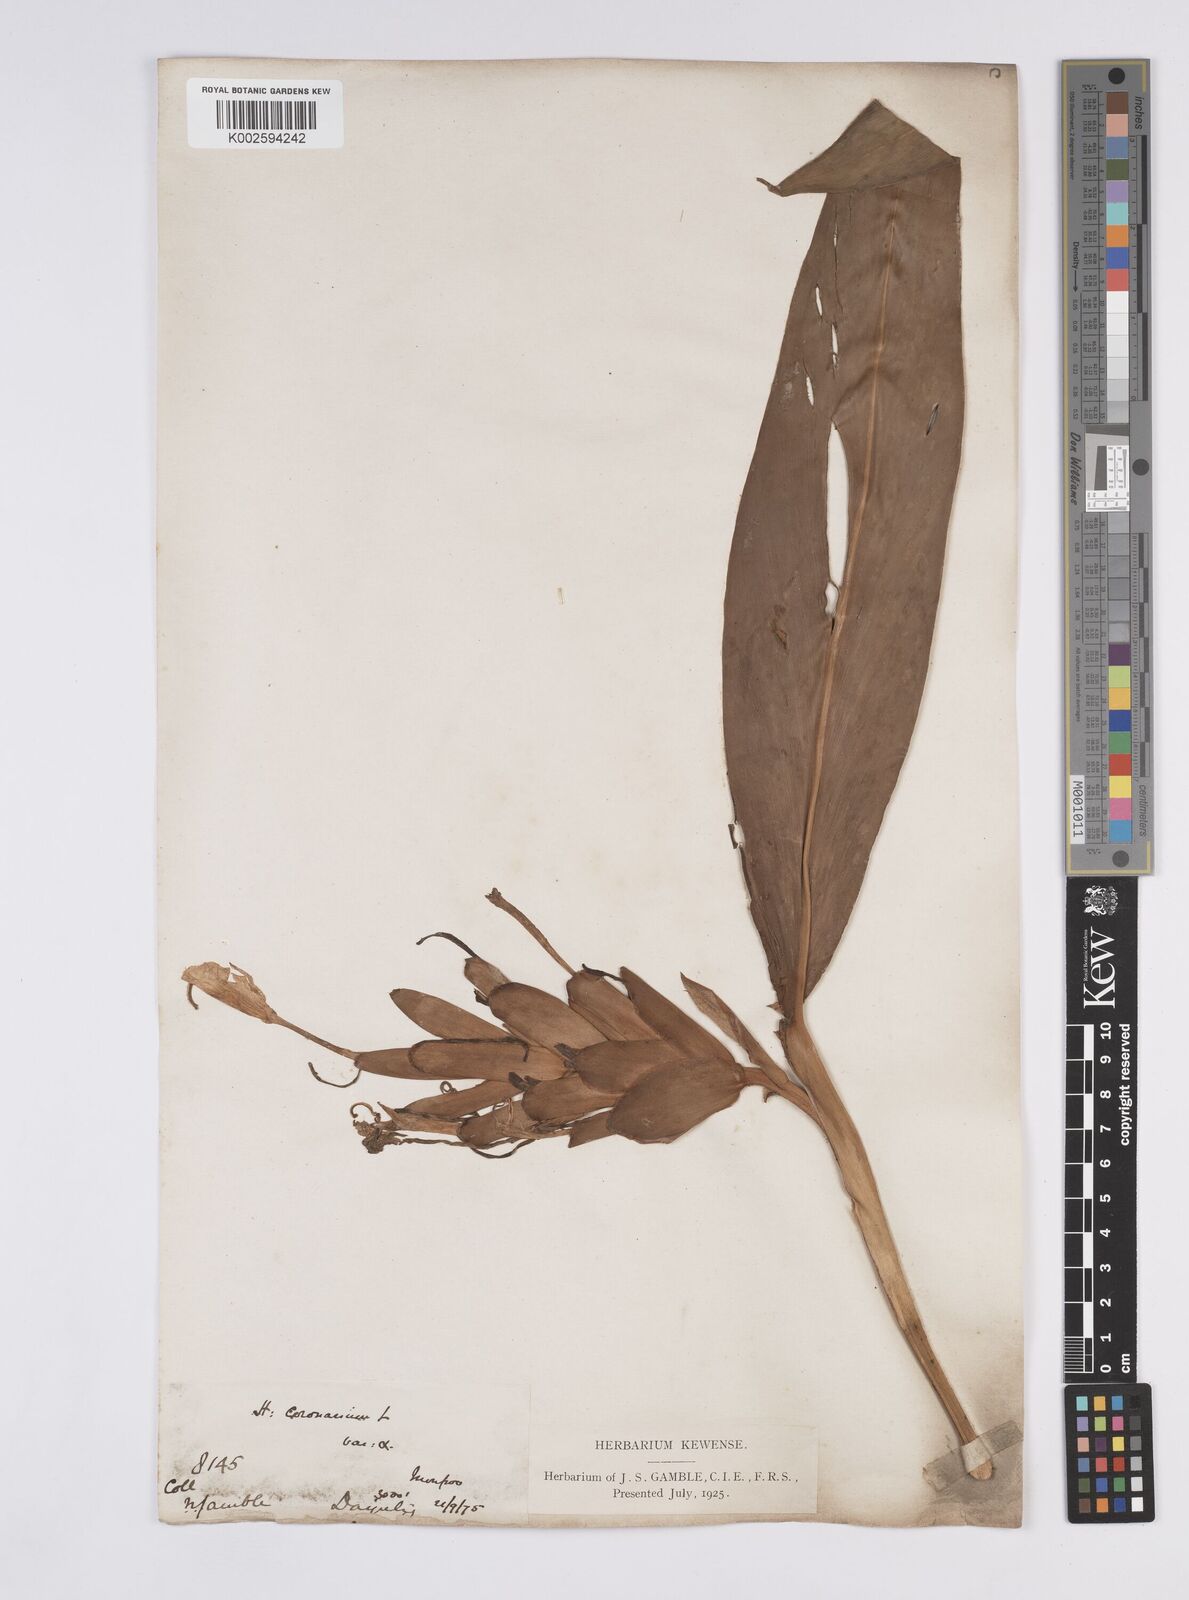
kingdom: Plantae
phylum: Tracheophyta
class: Liliopsida
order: Zingiberales
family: Zingiberaceae
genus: Hedychium
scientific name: Hedychium coronarium
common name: White garland-lily
